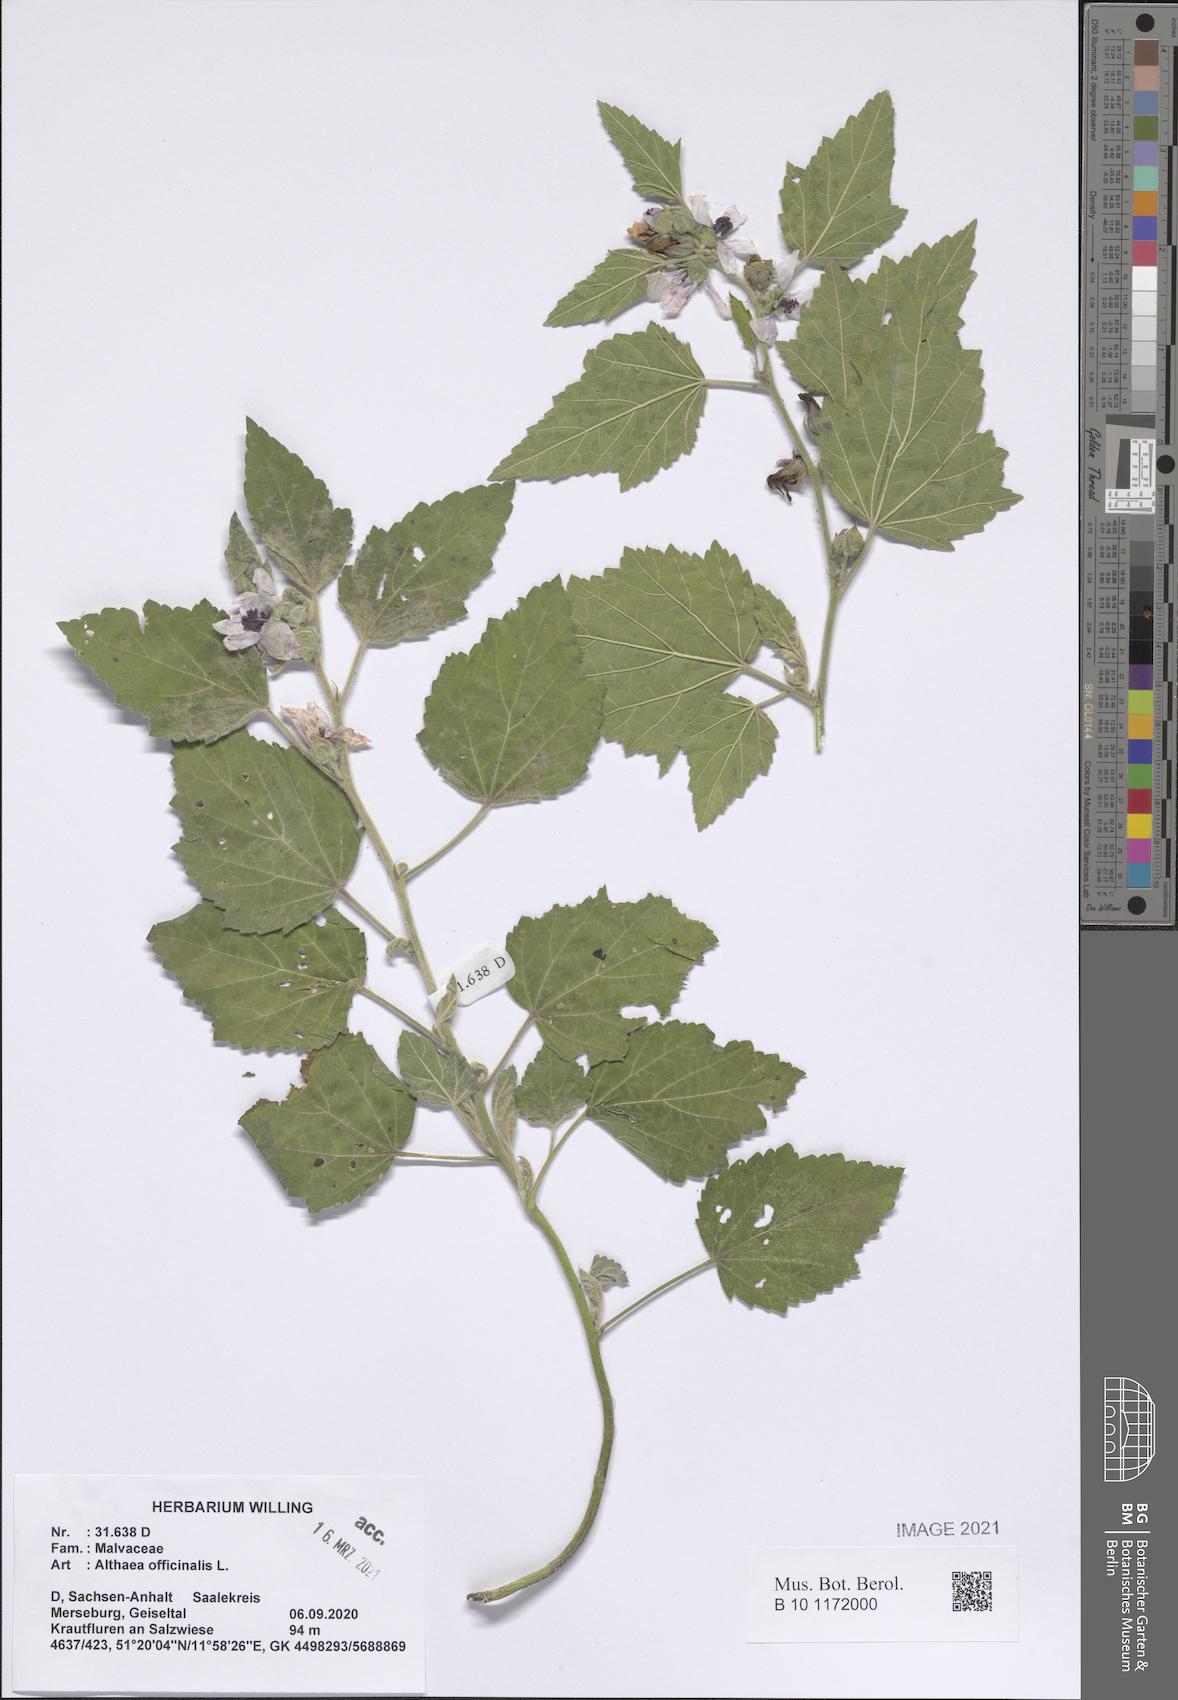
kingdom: Plantae
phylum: Tracheophyta
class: Magnoliopsida
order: Malvales
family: Malvaceae
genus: Althaea
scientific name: Althaea officinalis
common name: Marsh-mallow
